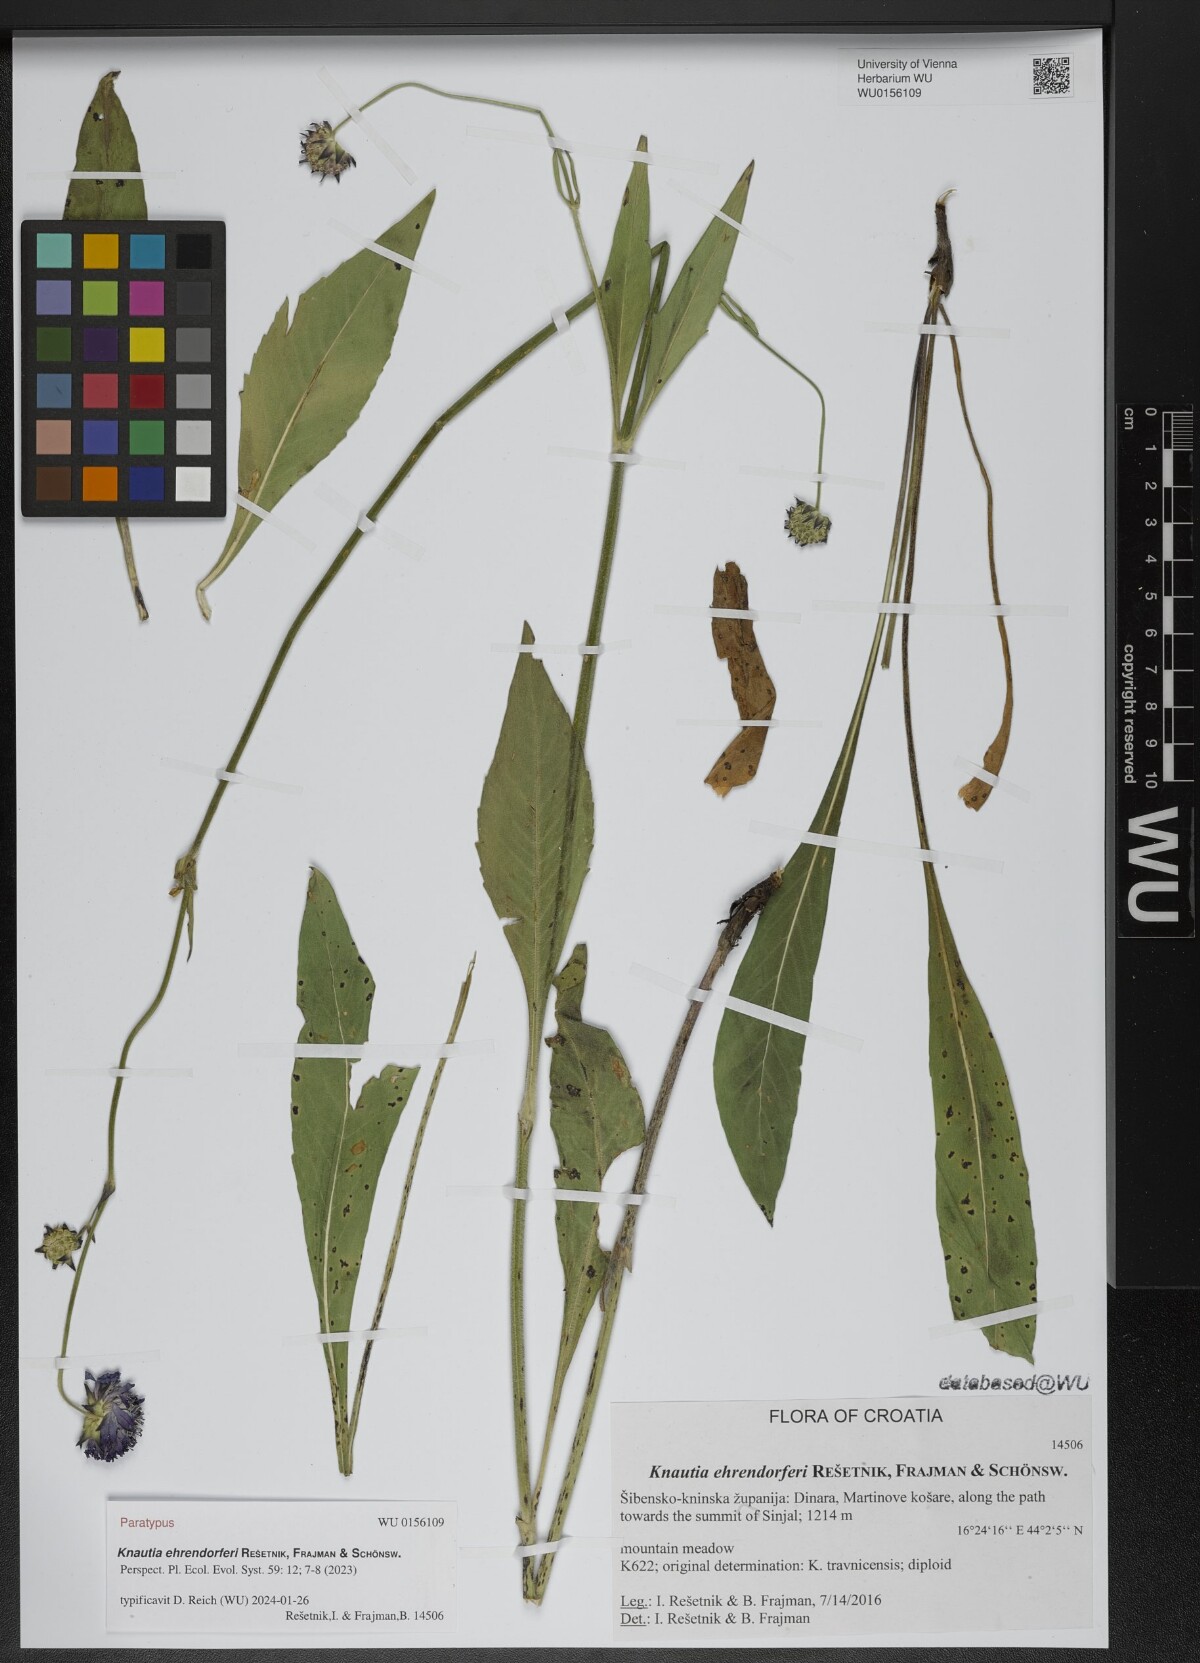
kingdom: Plantae
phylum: Tracheophyta
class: Magnoliopsida
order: Dipsacales
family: Caprifoliaceae
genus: Knautia
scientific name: Knautia
